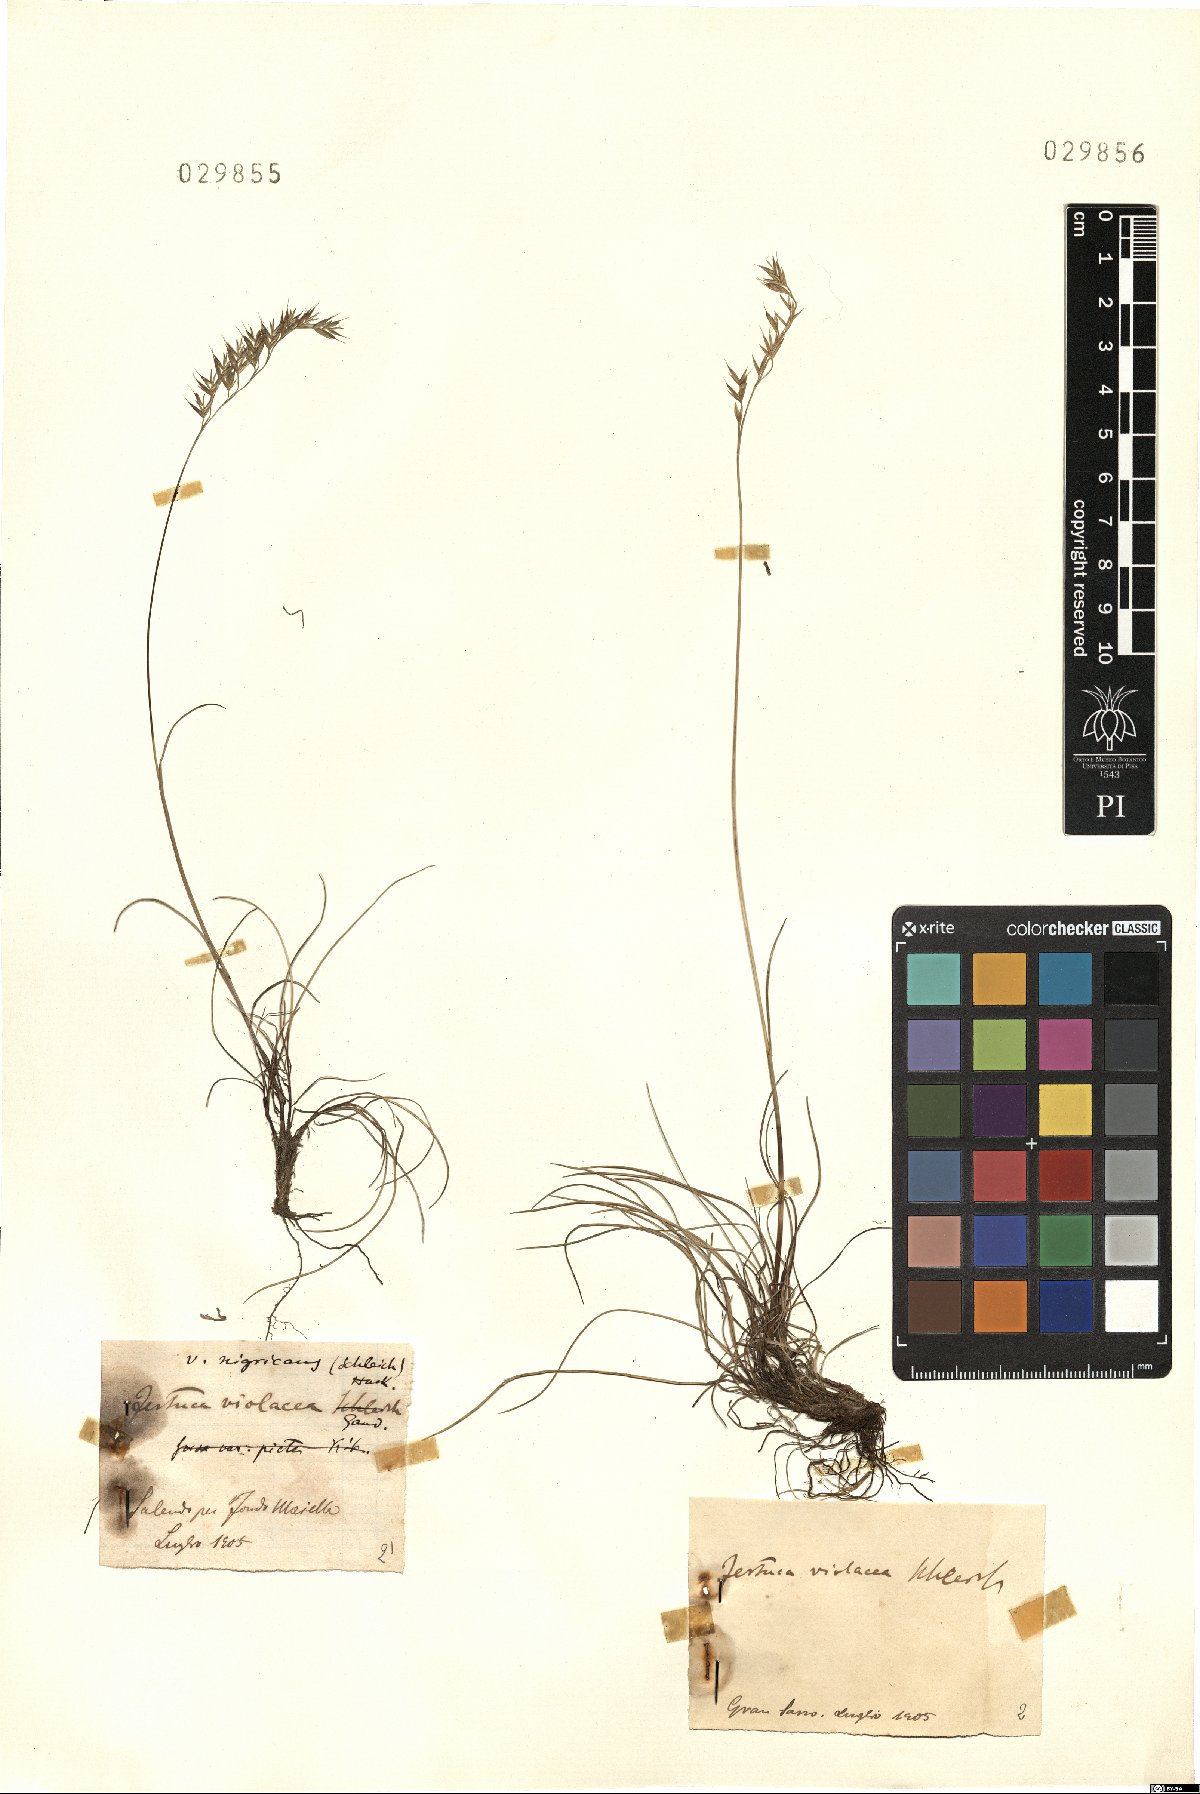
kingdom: Plantae
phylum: Tracheophyta
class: Liliopsida
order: Poales
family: Poaceae
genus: Festuca
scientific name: Festuca violacea
